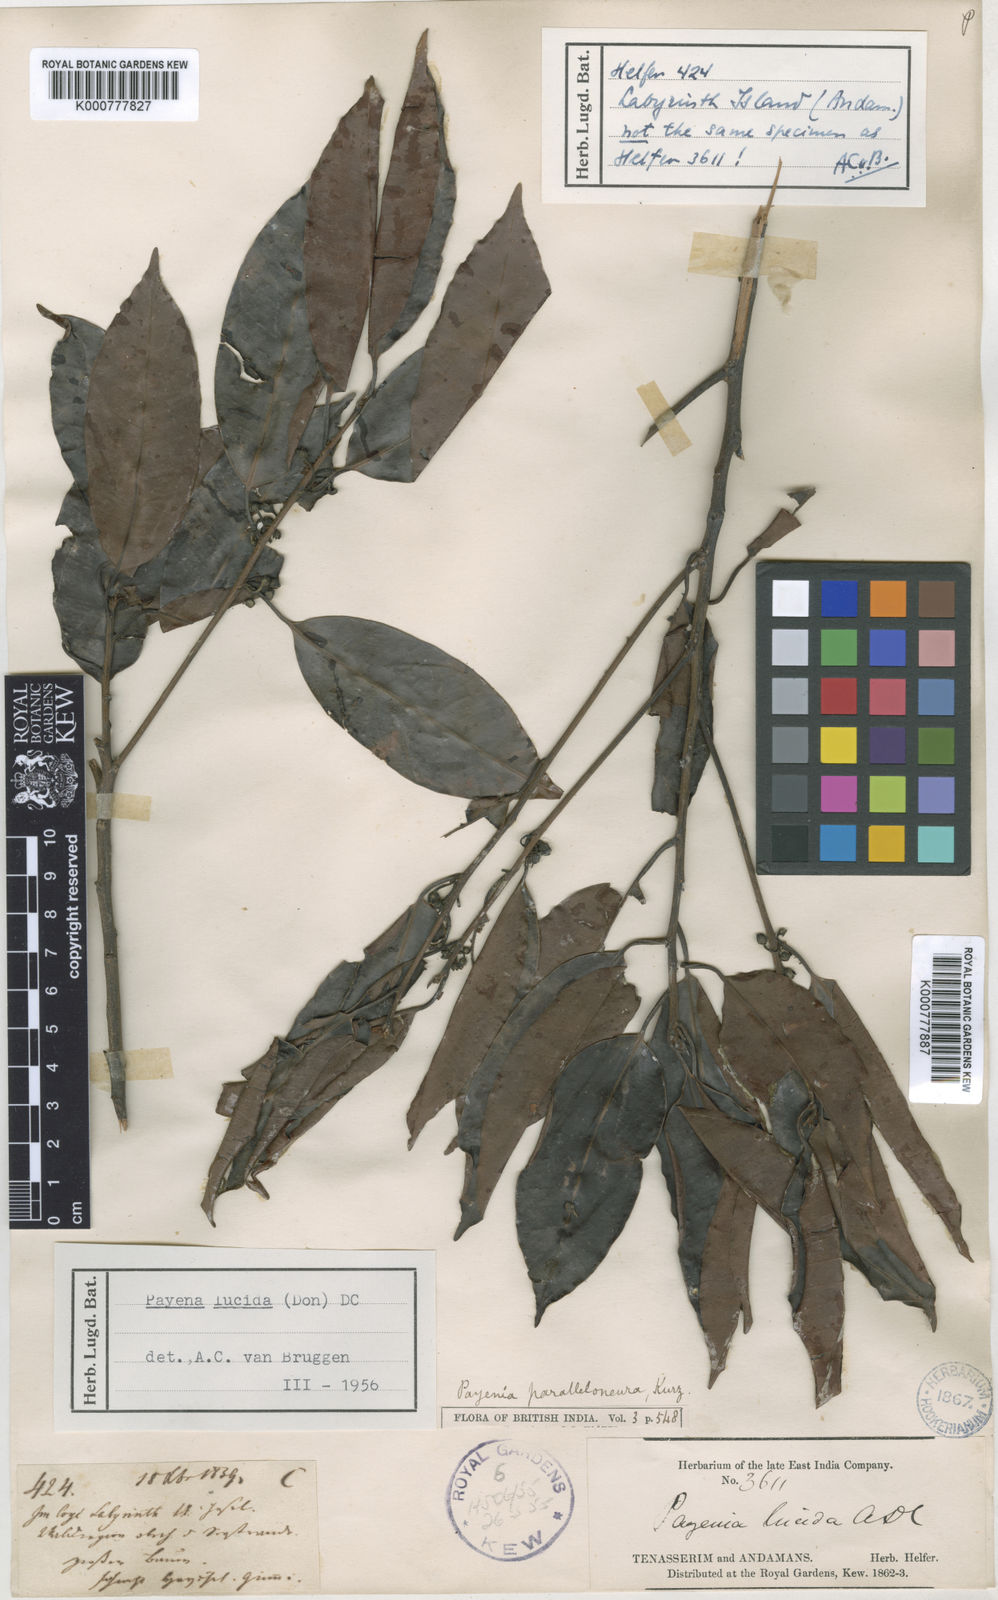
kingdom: Plantae
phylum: Tracheophyta
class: Magnoliopsida
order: Ericales
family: Sapotaceae
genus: Payena
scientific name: Payena lucida
